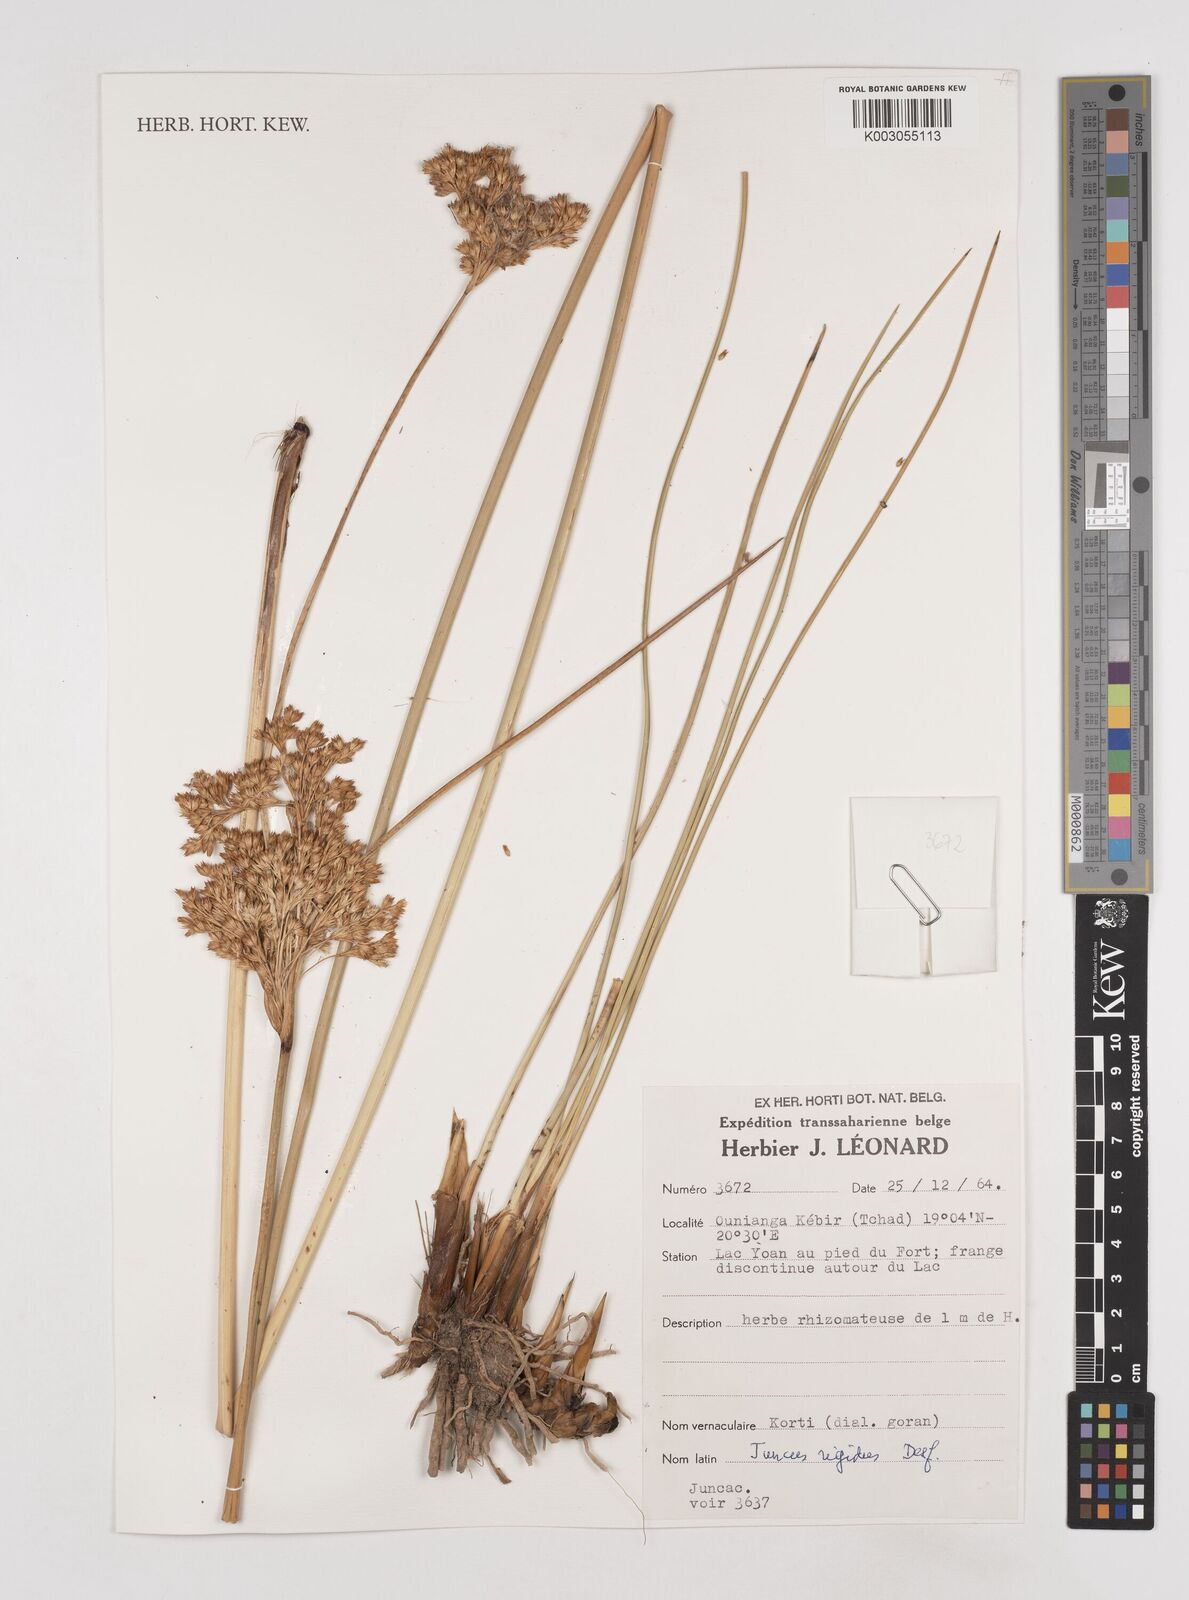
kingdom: Plantae
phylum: Tracheophyta
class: Liliopsida
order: Poales
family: Juncaceae
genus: Juncus
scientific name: Juncus rigidus
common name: Hard sea rush
